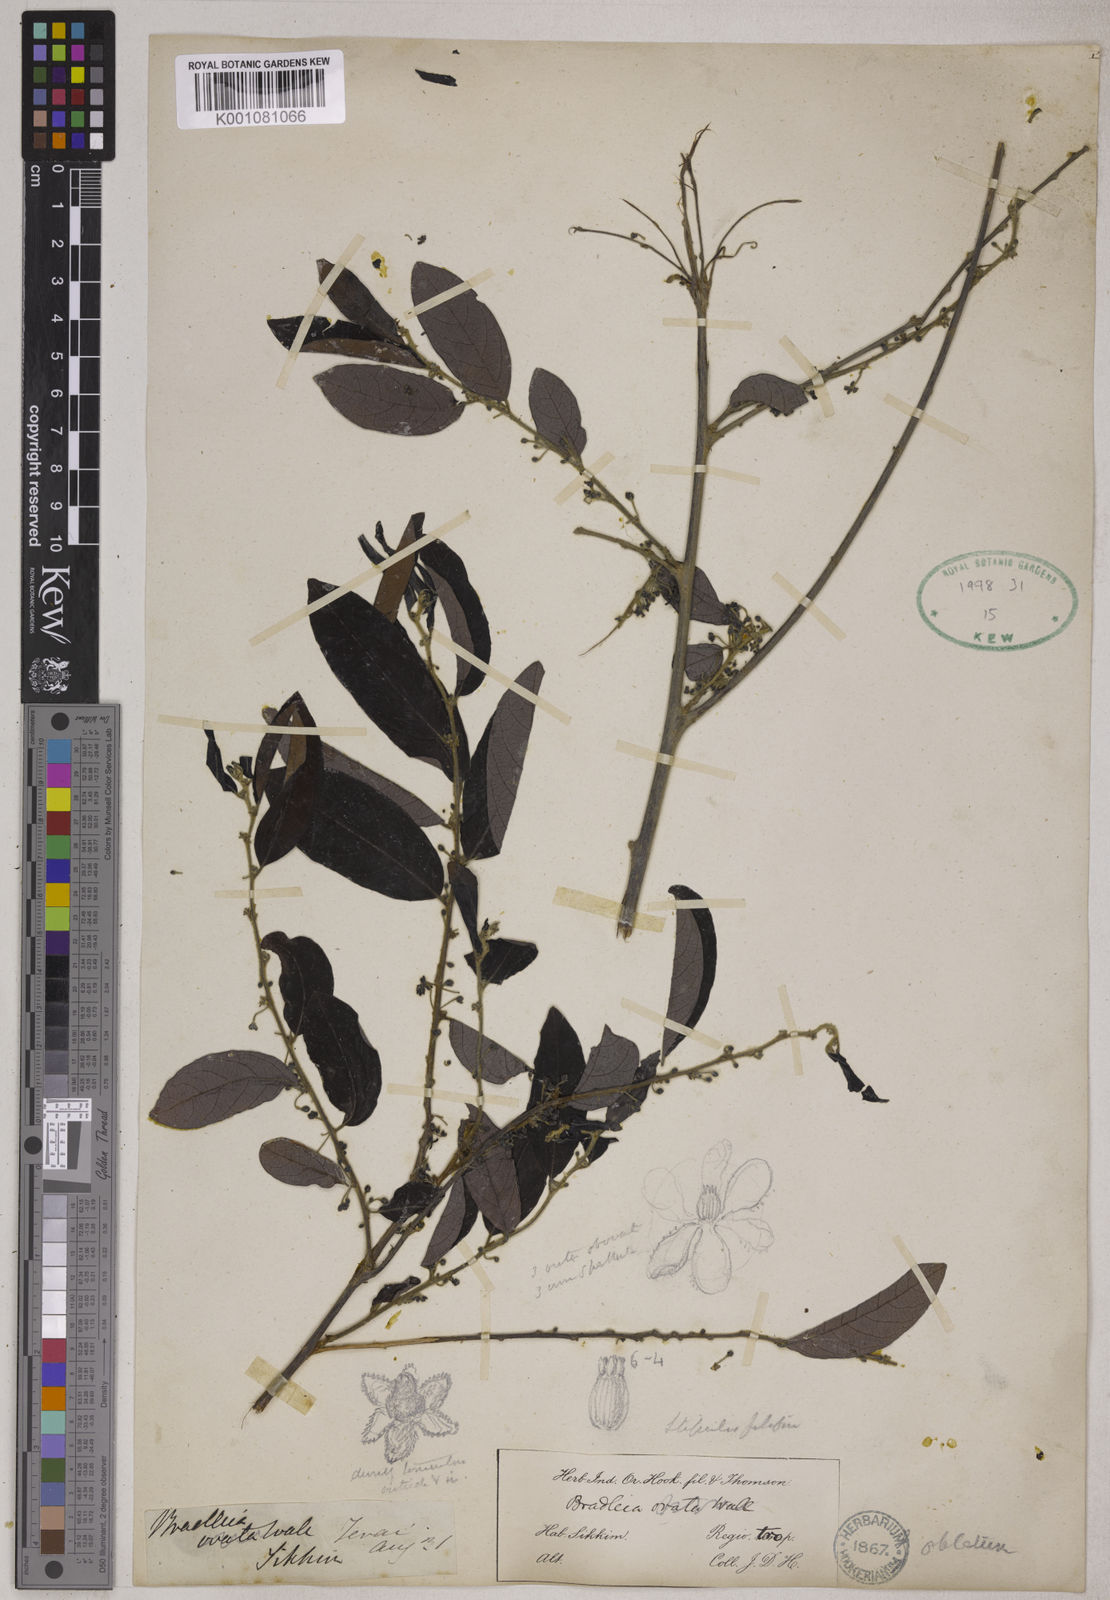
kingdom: Plantae
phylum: Tracheophyta
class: Magnoliopsida
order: Malpighiales
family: Phyllanthaceae
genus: Glochidion
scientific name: Glochidion oblatum
